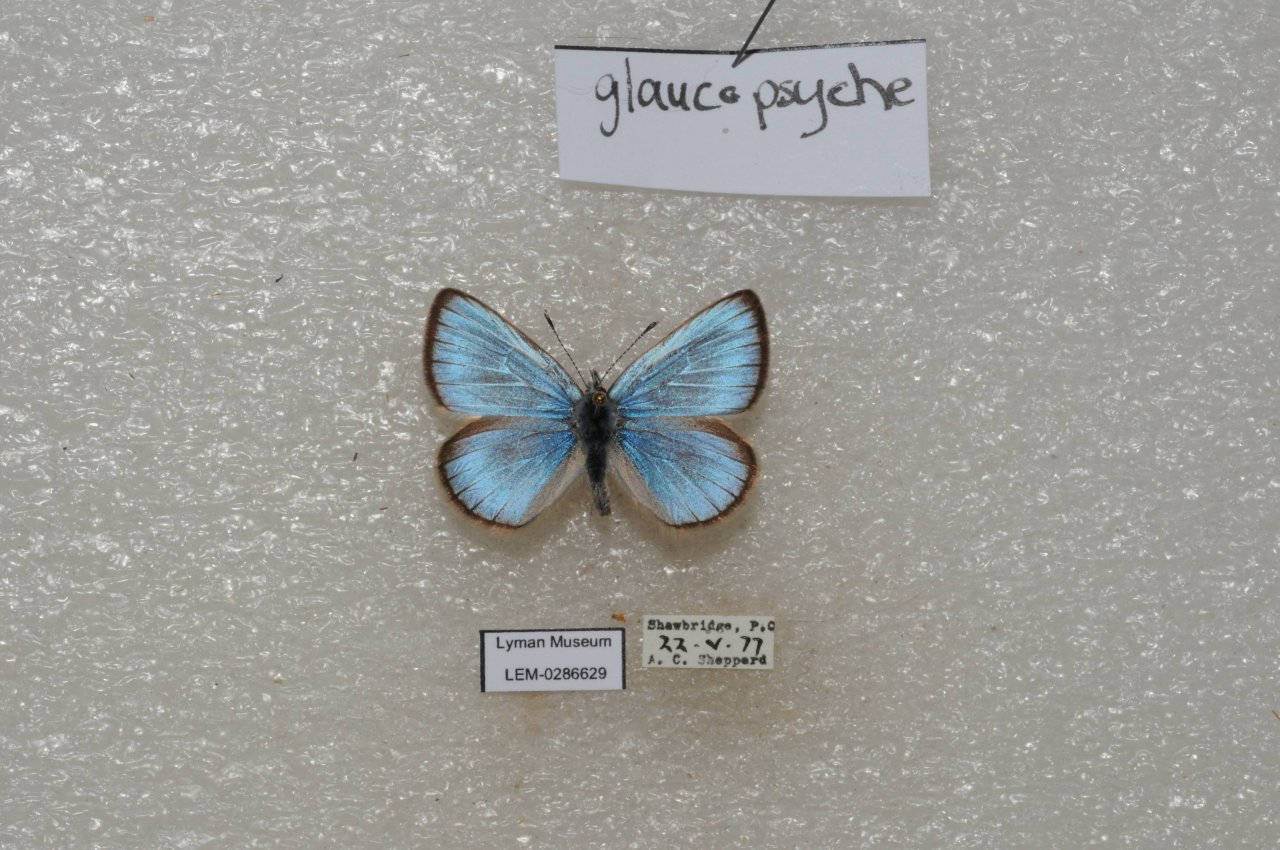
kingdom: Animalia
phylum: Arthropoda
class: Insecta
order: Lepidoptera
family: Lycaenidae
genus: Glaucopsyche
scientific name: Glaucopsyche lygdamus
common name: Silvery Blue
